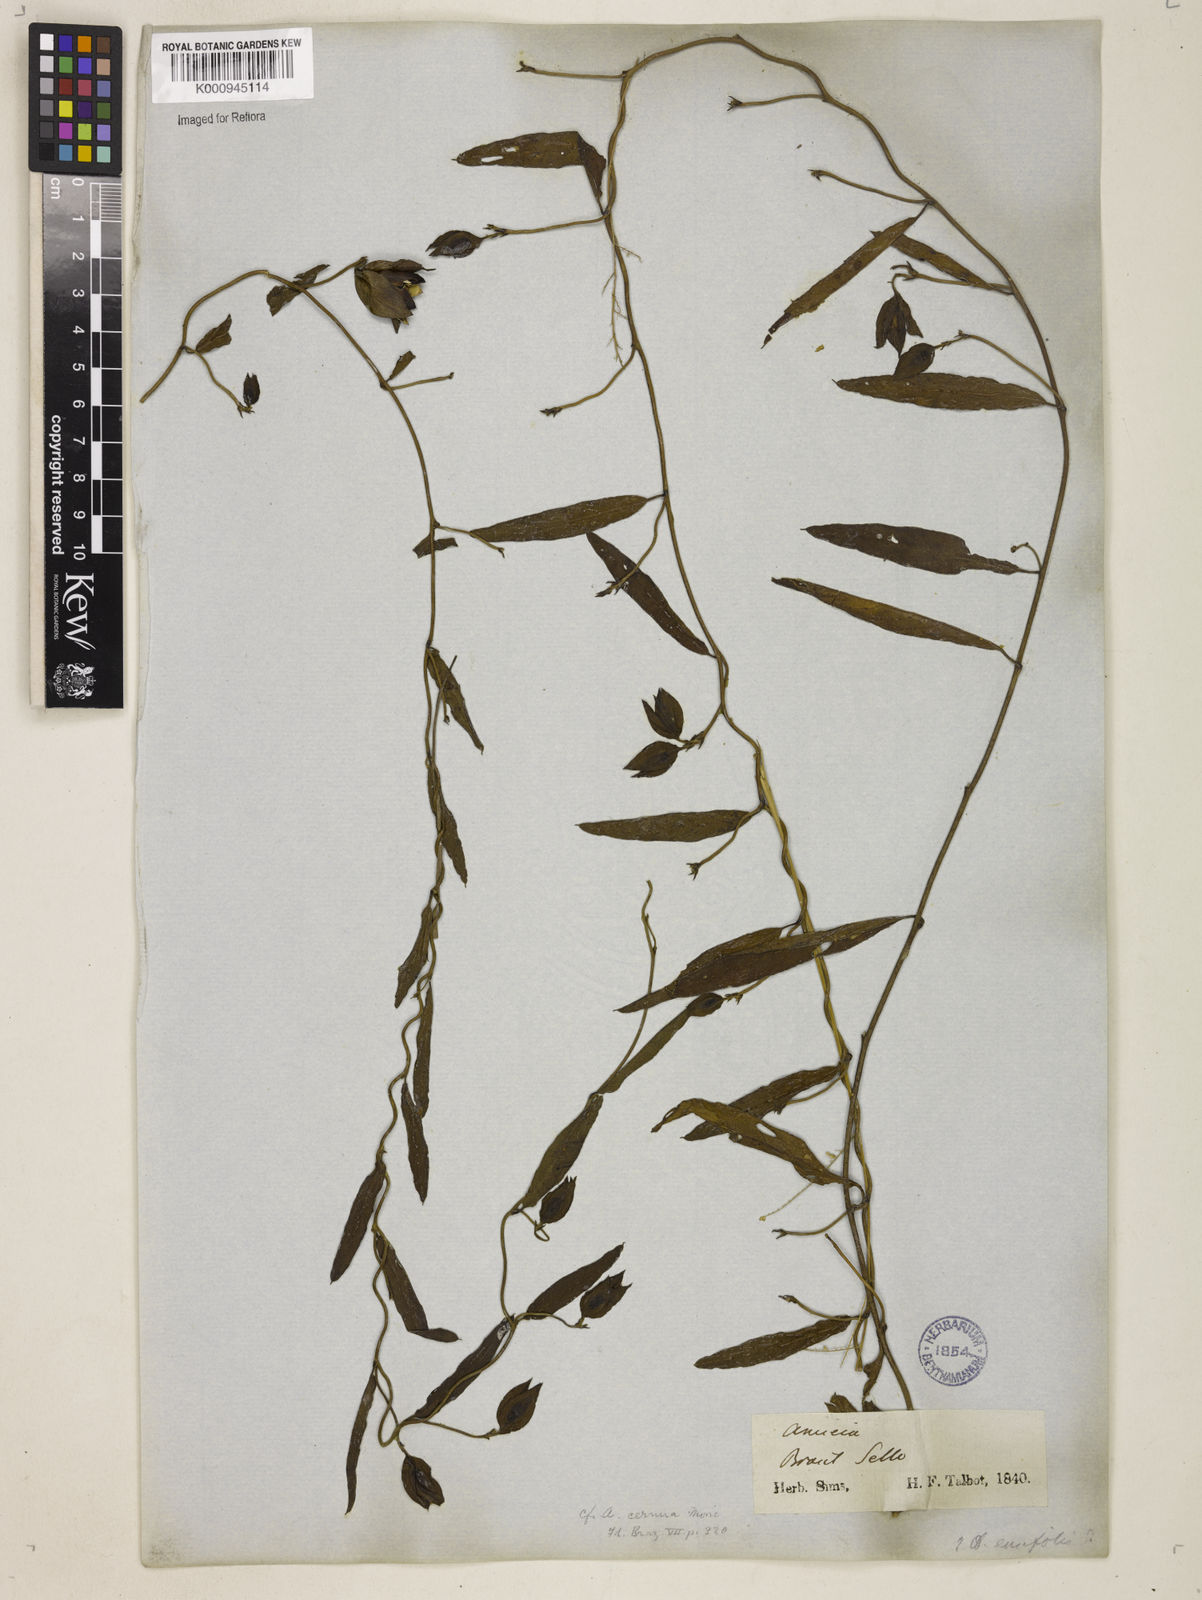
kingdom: Plantae
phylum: Tracheophyta
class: Magnoliopsida
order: Solanales
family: Convolvulaceae
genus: Aniseia
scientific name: Aniseia
